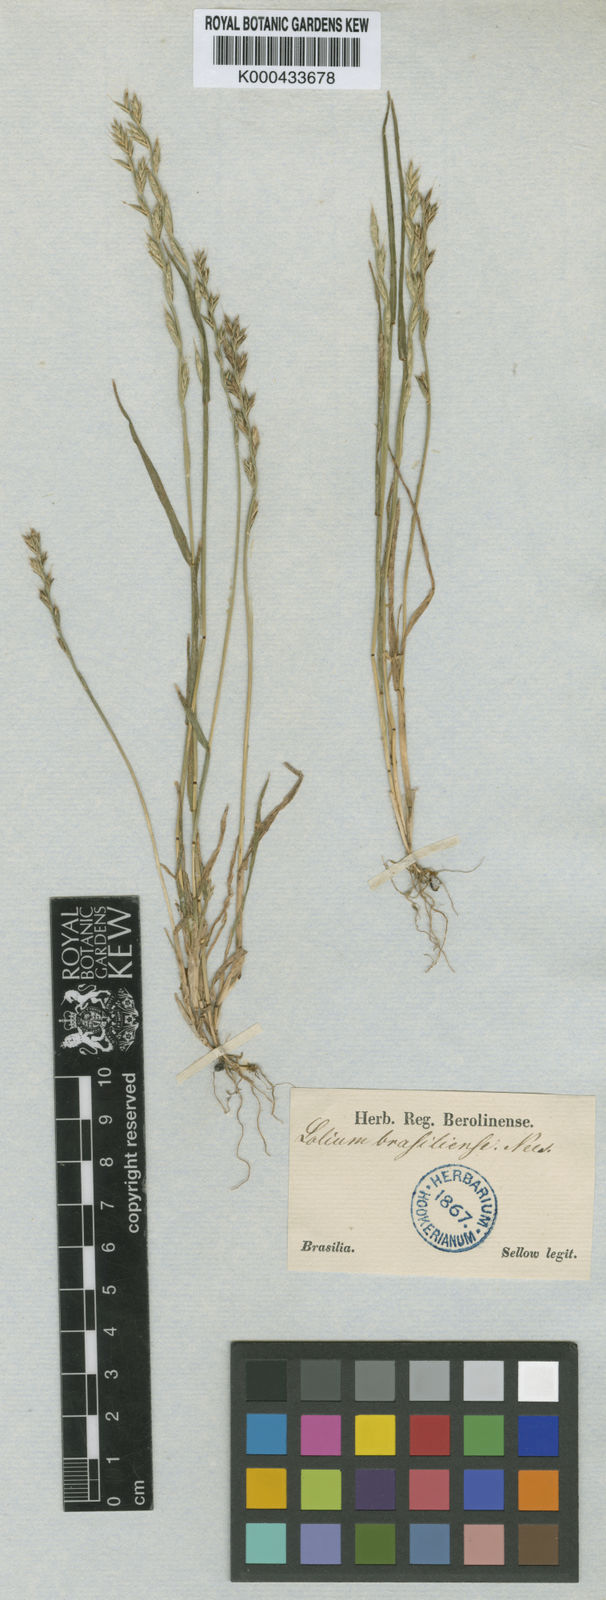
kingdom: Plantae
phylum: Tracheophyta
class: Liliopsida
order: Poales
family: Poaceae
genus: Lolium
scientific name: Lolium perenne
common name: Perennial ryegrass
